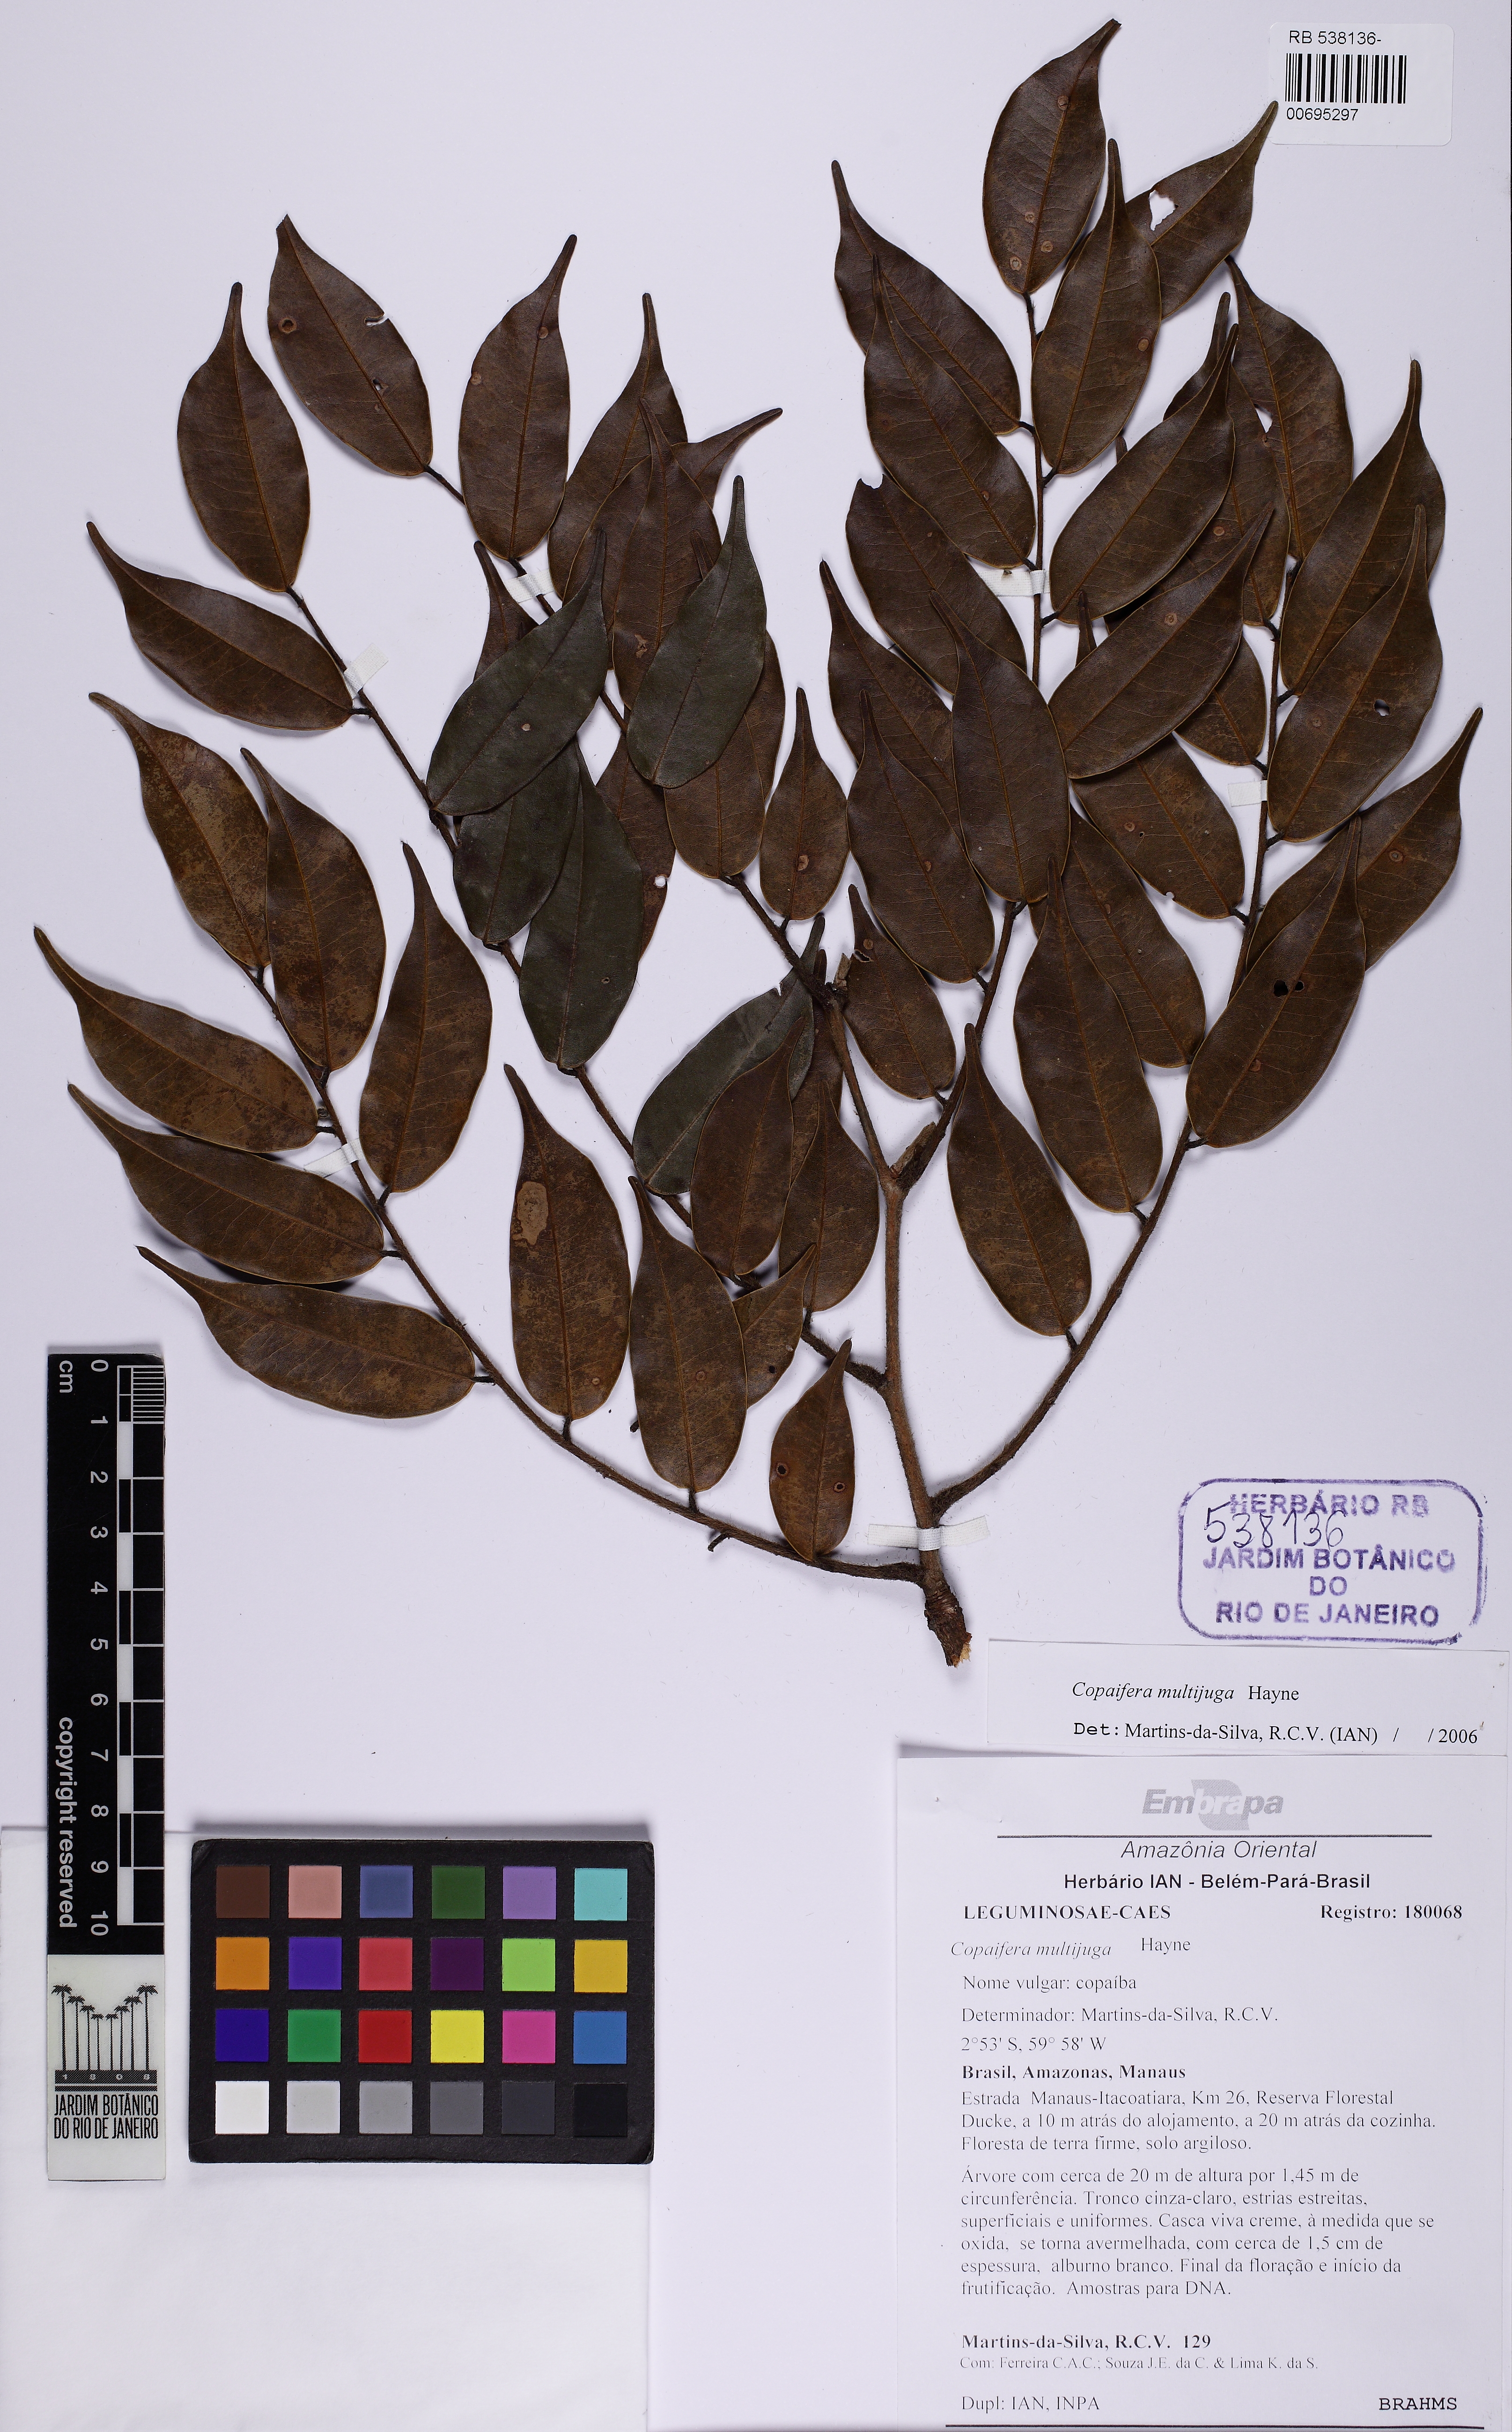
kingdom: Plantae
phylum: Tracheophyta
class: Magnoliopsida
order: Fabales
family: Fabaceae
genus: Copaifera
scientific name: Copaifera multijuga
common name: Brazilian copaiba
